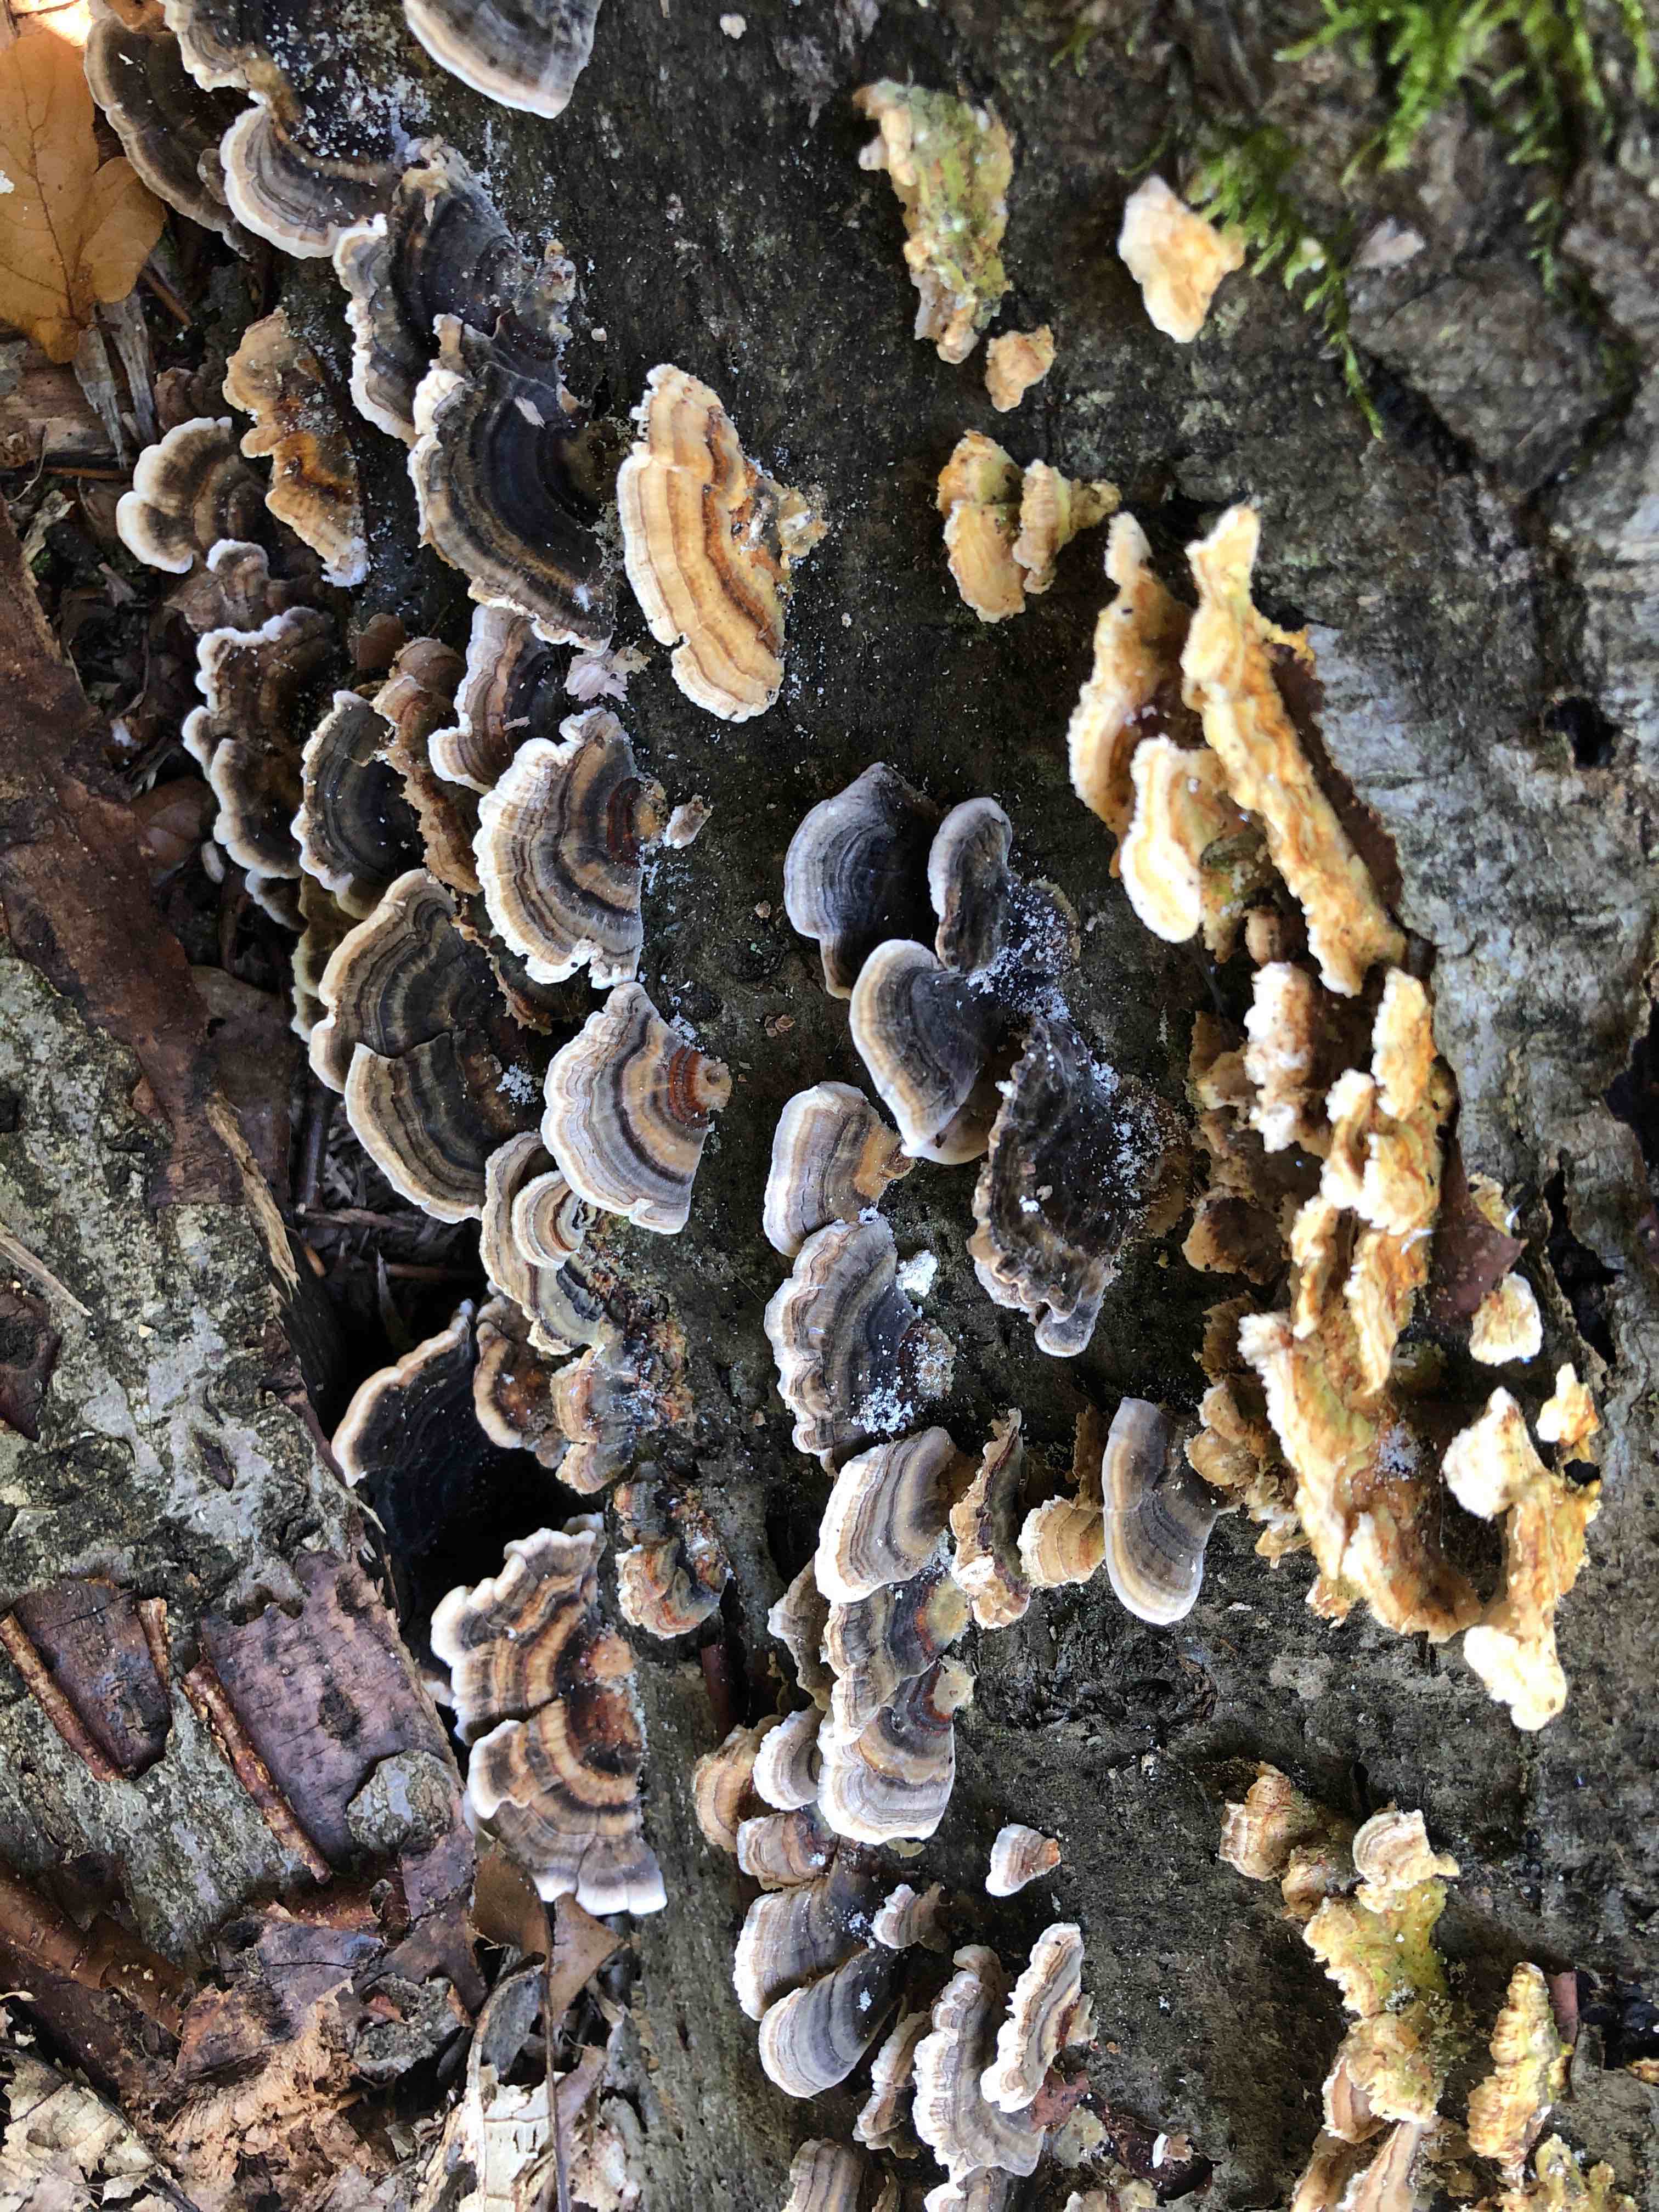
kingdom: Fungi
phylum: Basidiomycota
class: Agaricomycetes
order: Polyporales
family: Polyporaceae
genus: Trametes
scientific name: Trametes versicolor
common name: broget læderporesvamp
